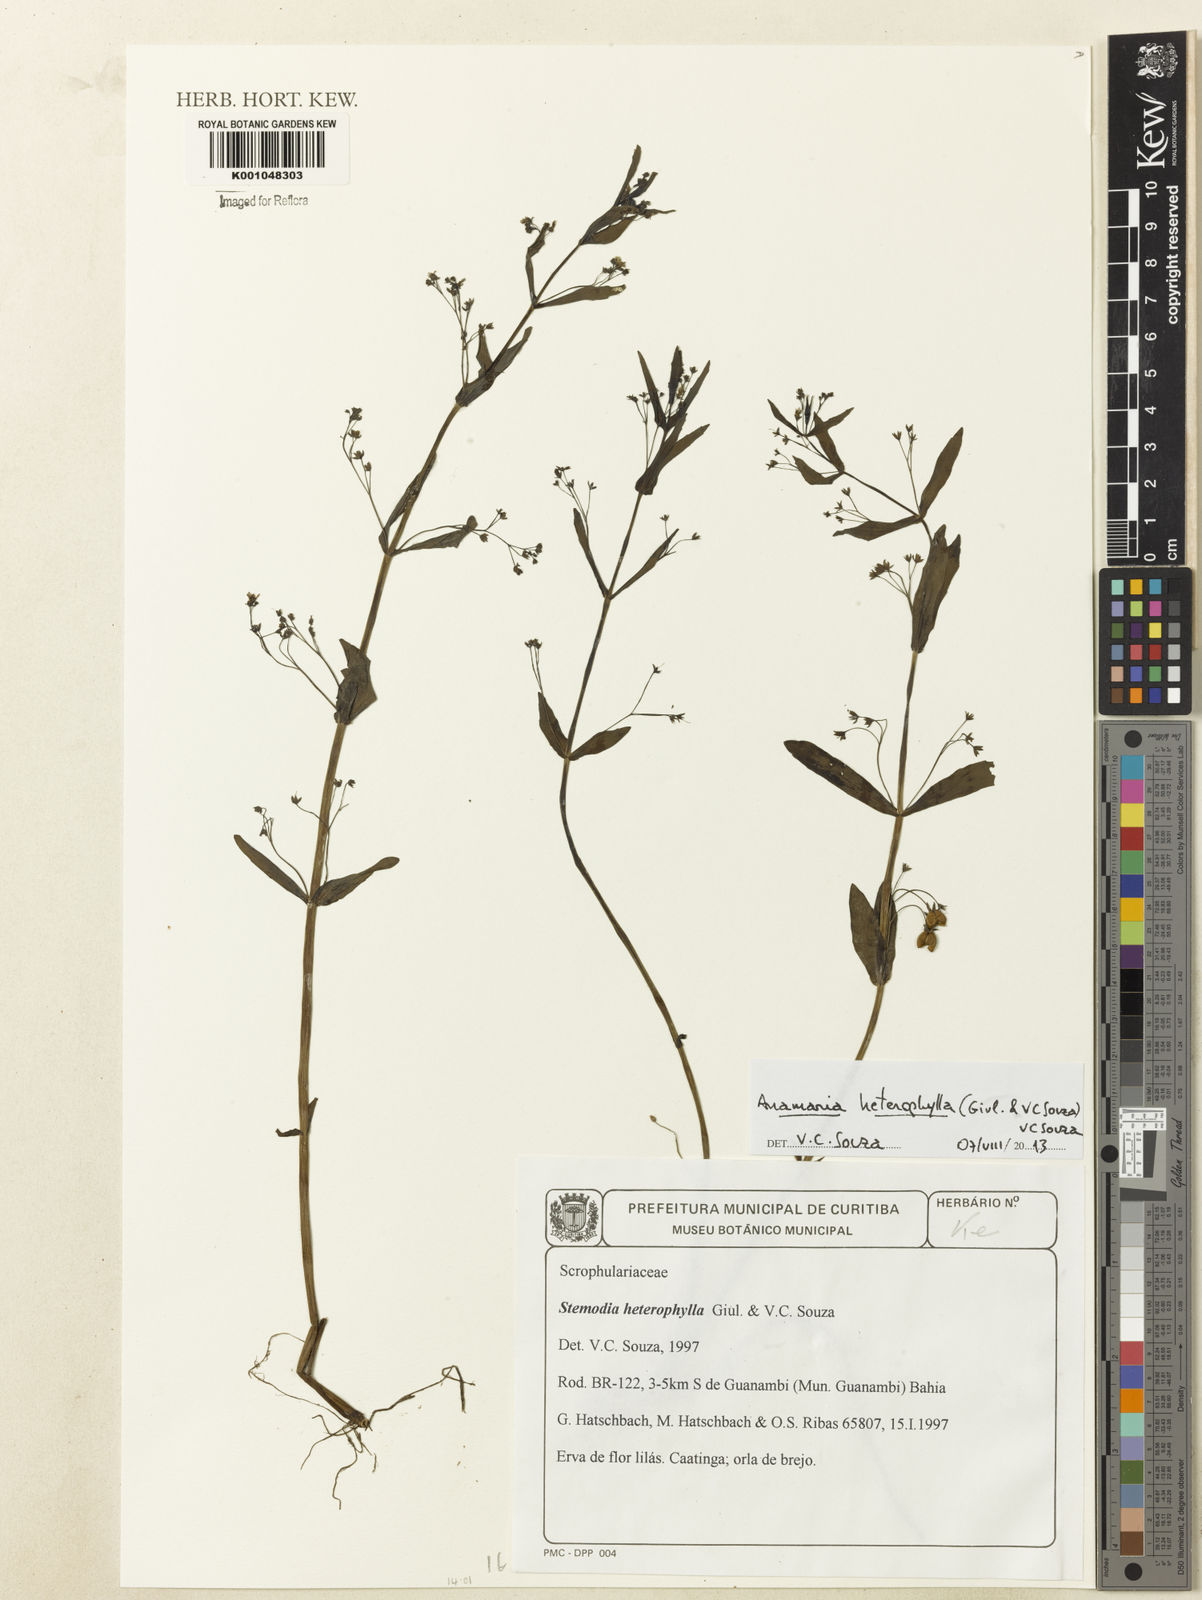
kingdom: Plantae
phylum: Tracheophyta
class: Magnoliopsida
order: Lamiales
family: Plantaginaceae
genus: Anamaria
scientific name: Anamaria heterophylla
